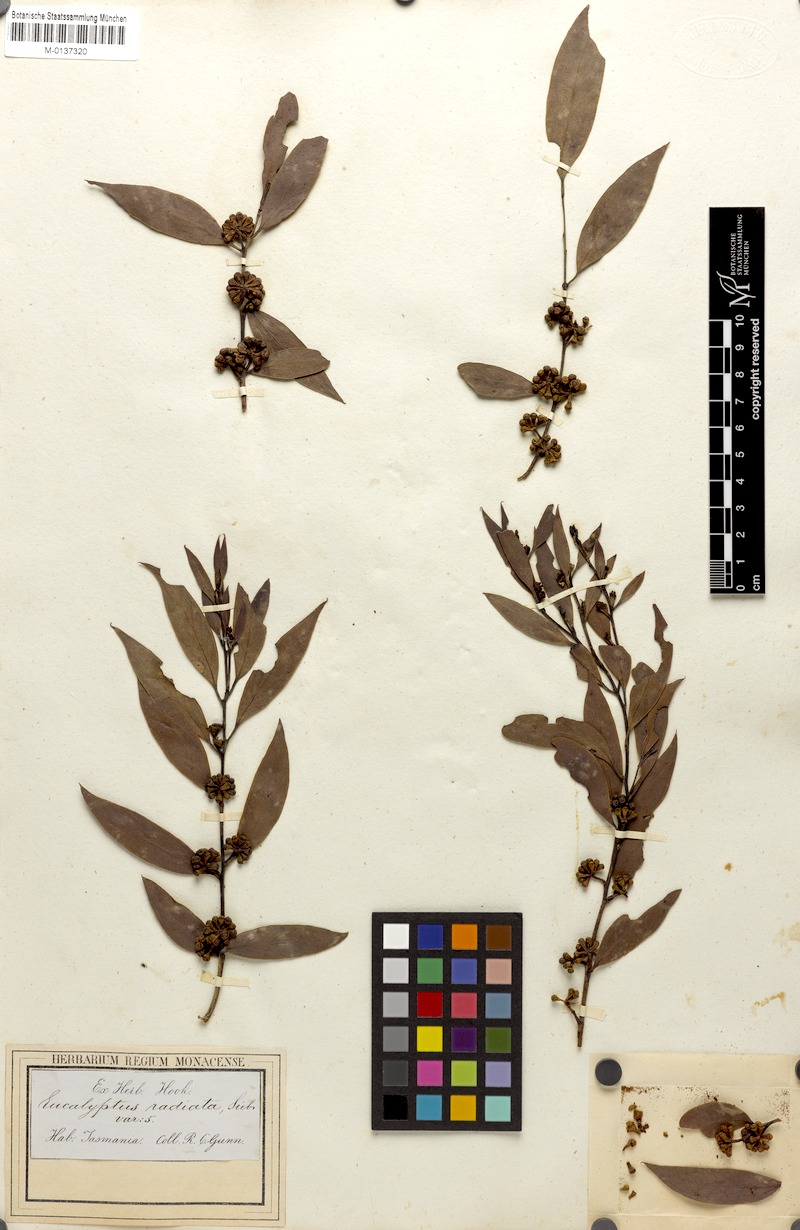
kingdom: Plantae
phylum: Tracheophyta
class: Magnoliopsida
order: Myrtales
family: Myrtaceae
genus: Eucalyptus
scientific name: Eucalyptus radiata
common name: Narrow-leaved-peppermint
